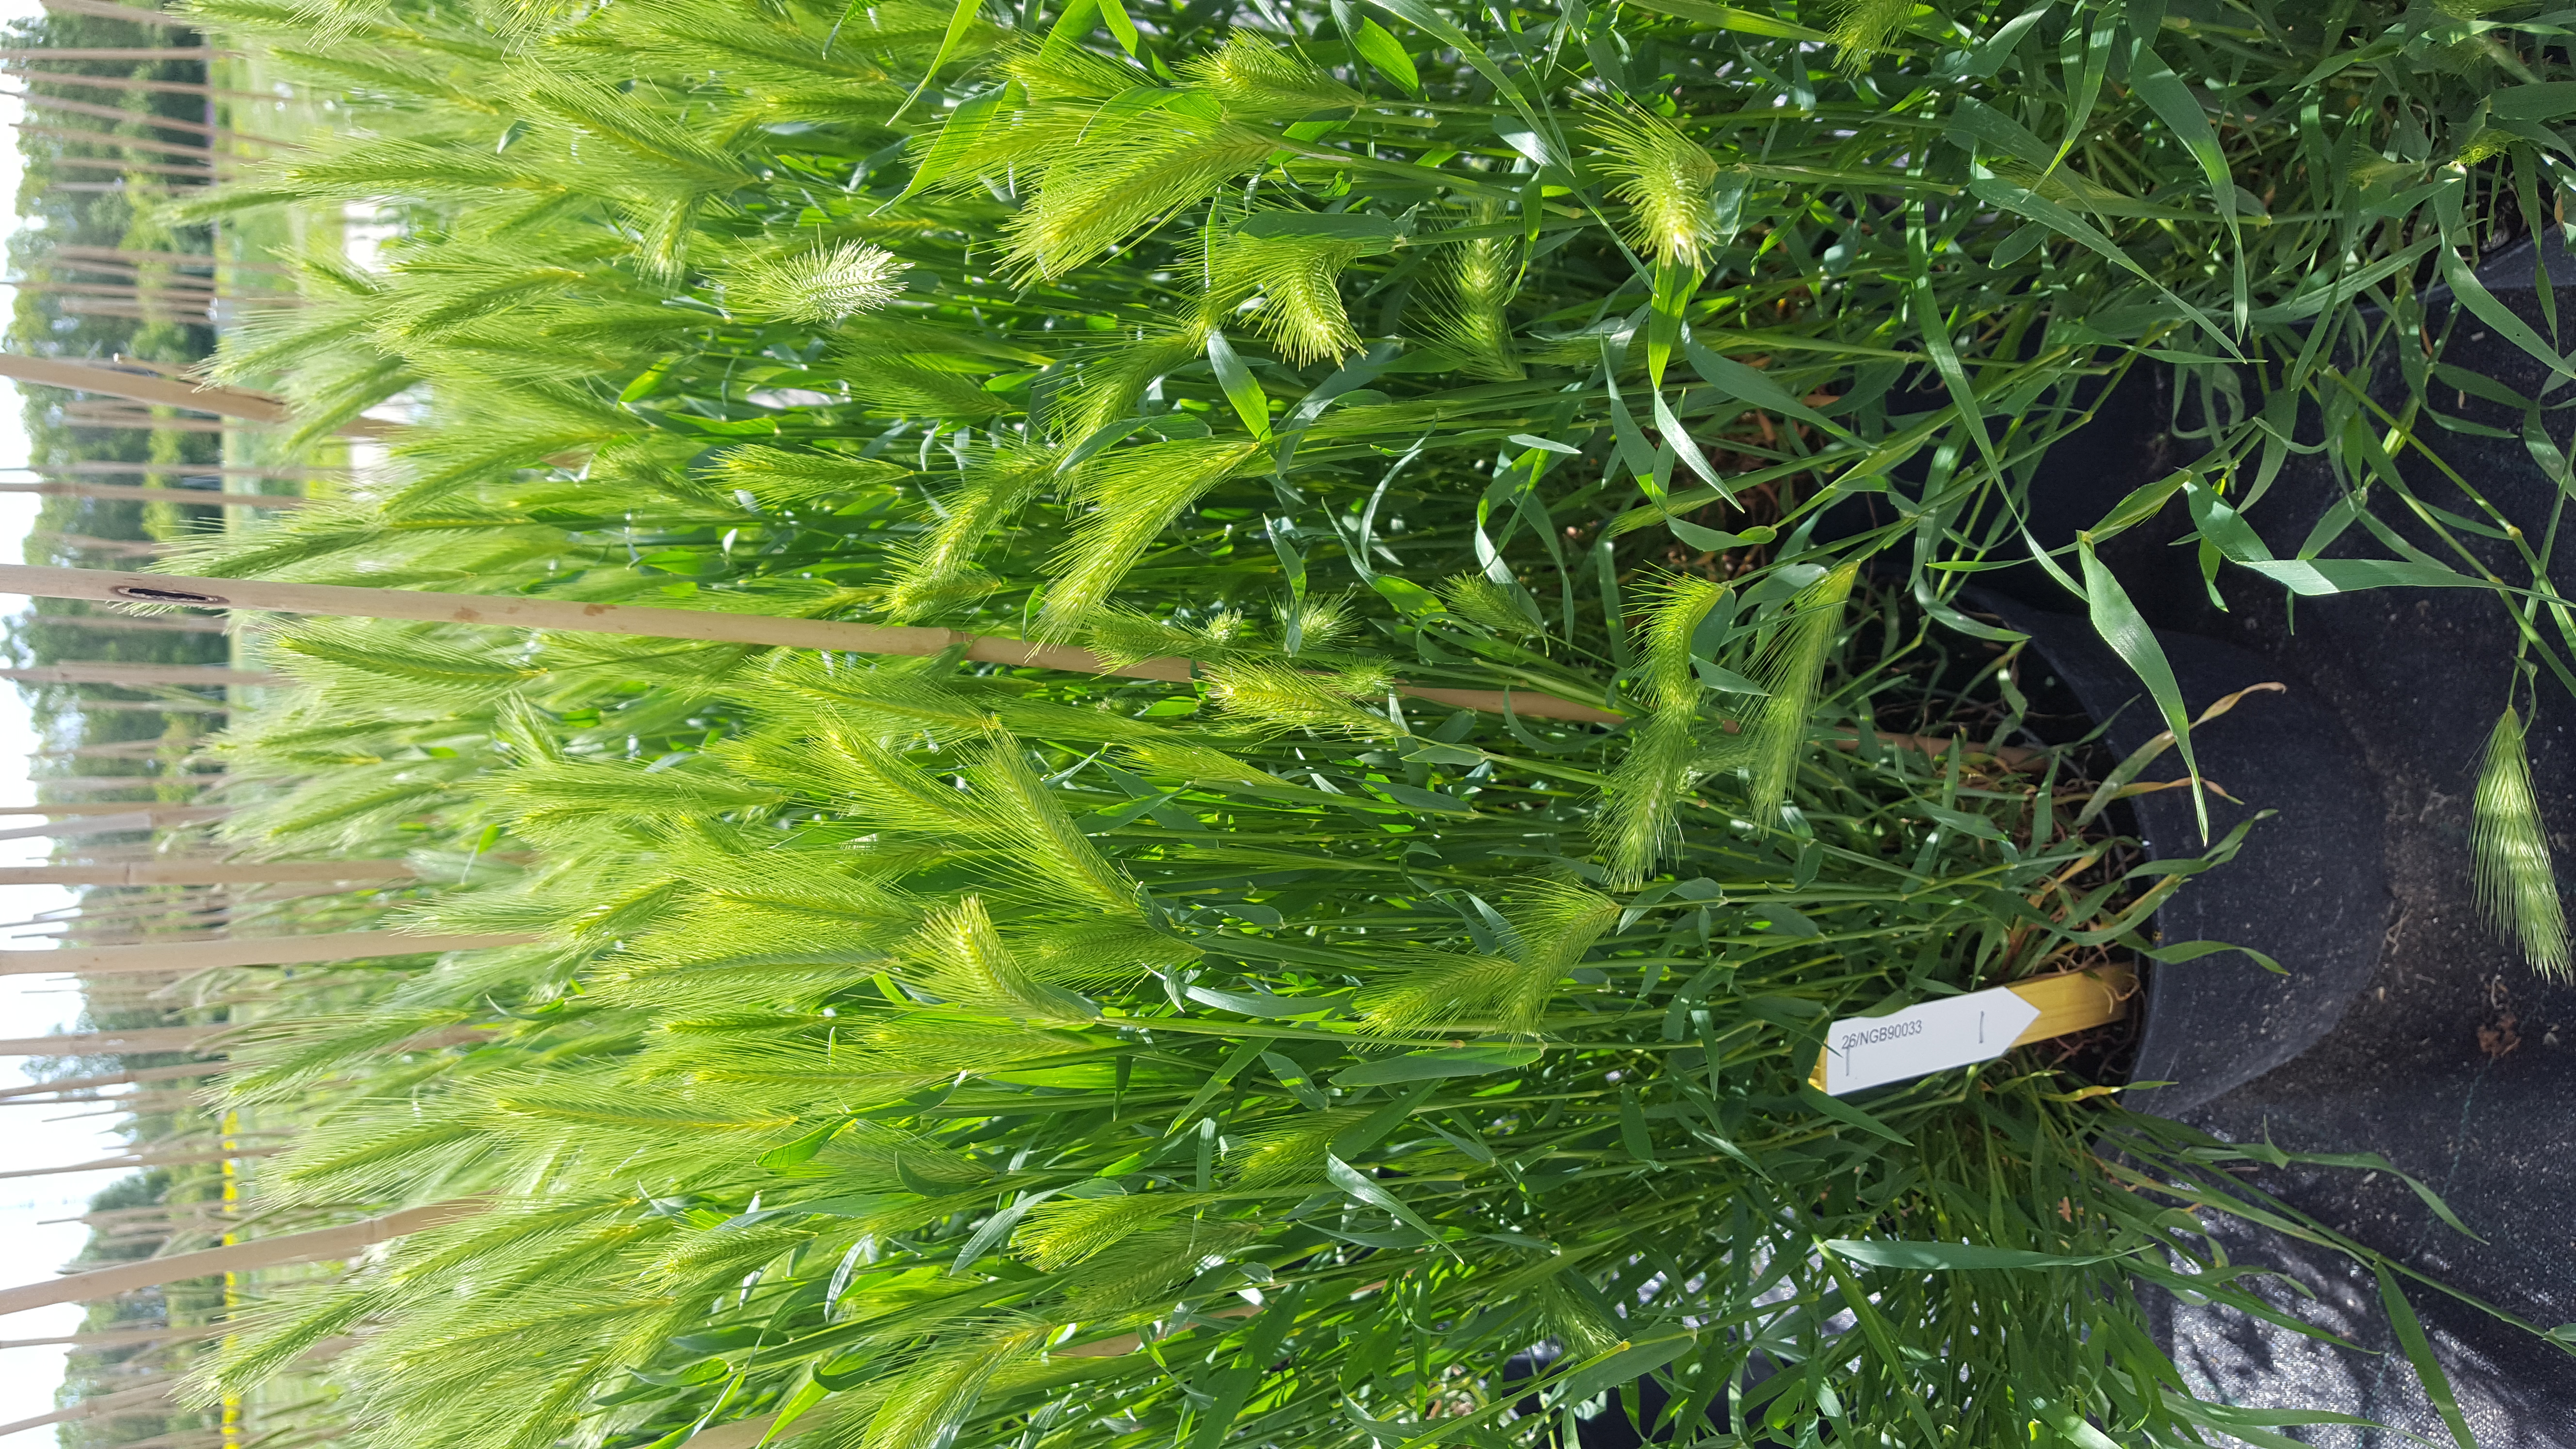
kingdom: Plantae
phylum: Tracheophyta
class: Liliopsida
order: Poales
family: Poaceae
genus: Hordeum
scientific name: Hordeum murinum
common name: Wall barley
